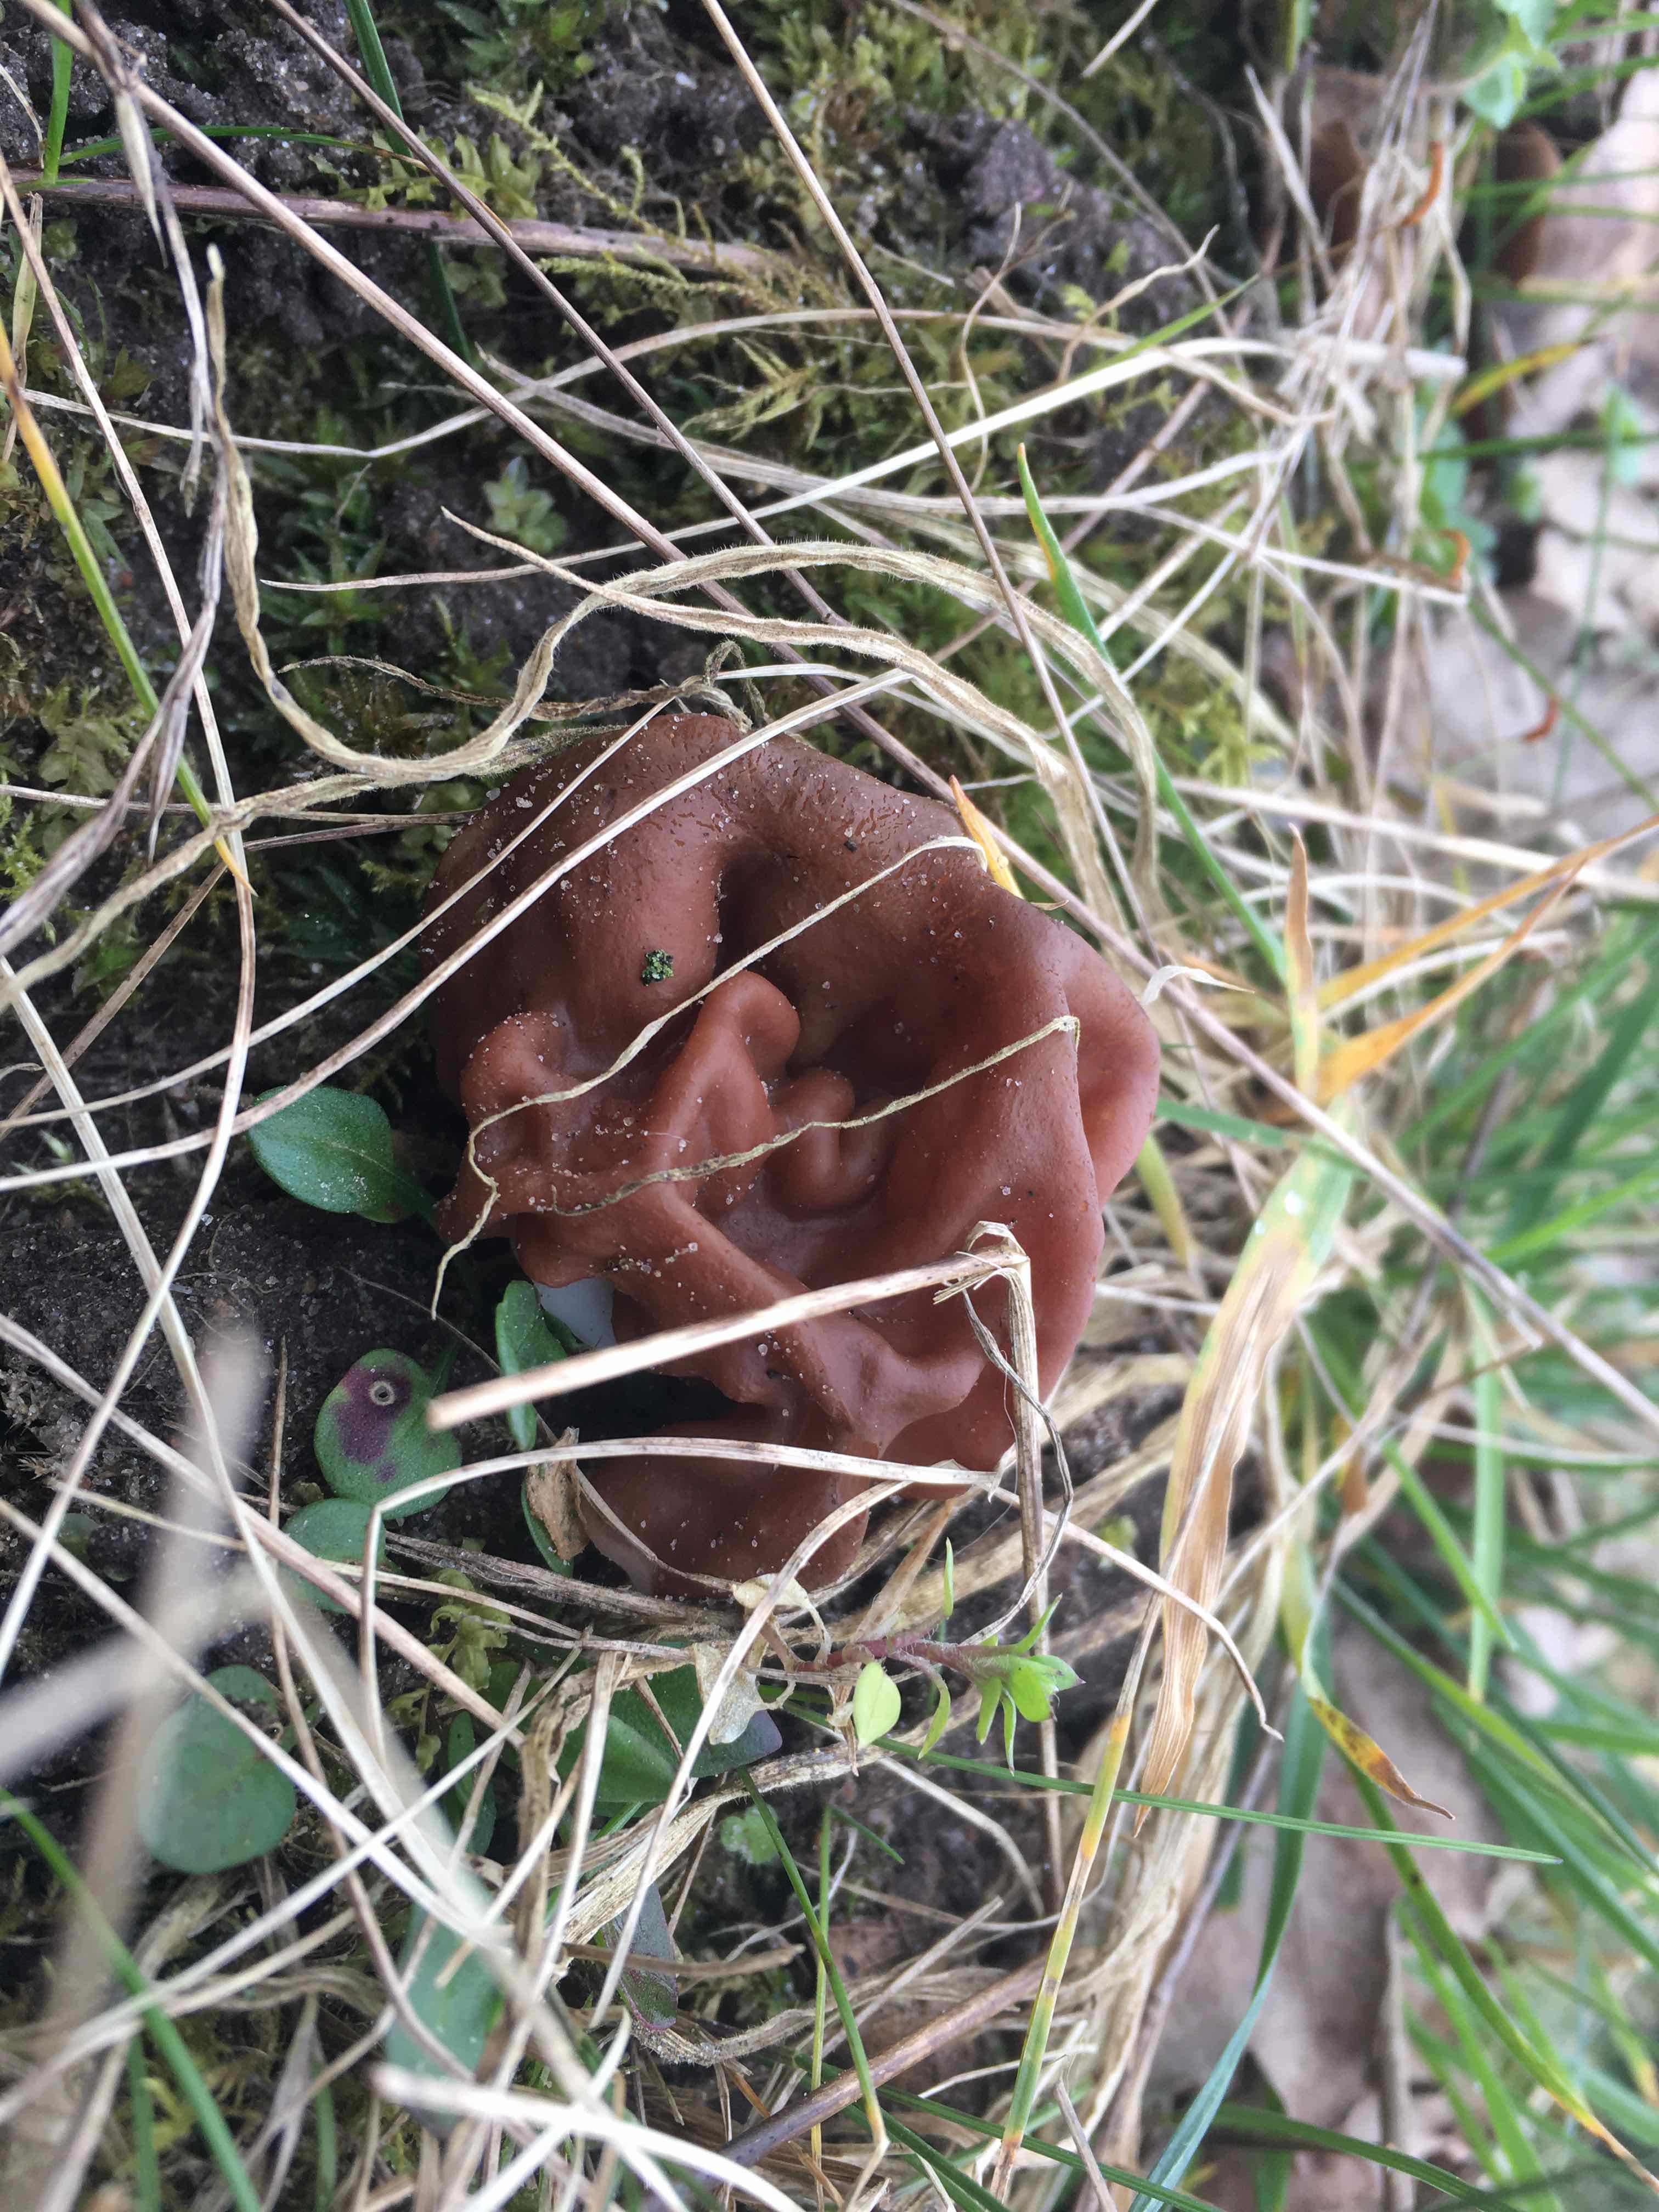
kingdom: Fungi
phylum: Ascomycota
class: Pezizomycetes
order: Pezizales
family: Discinaceae
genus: Gyromitra
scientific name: Gyromitra esculenta
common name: ægte stenmorkel
